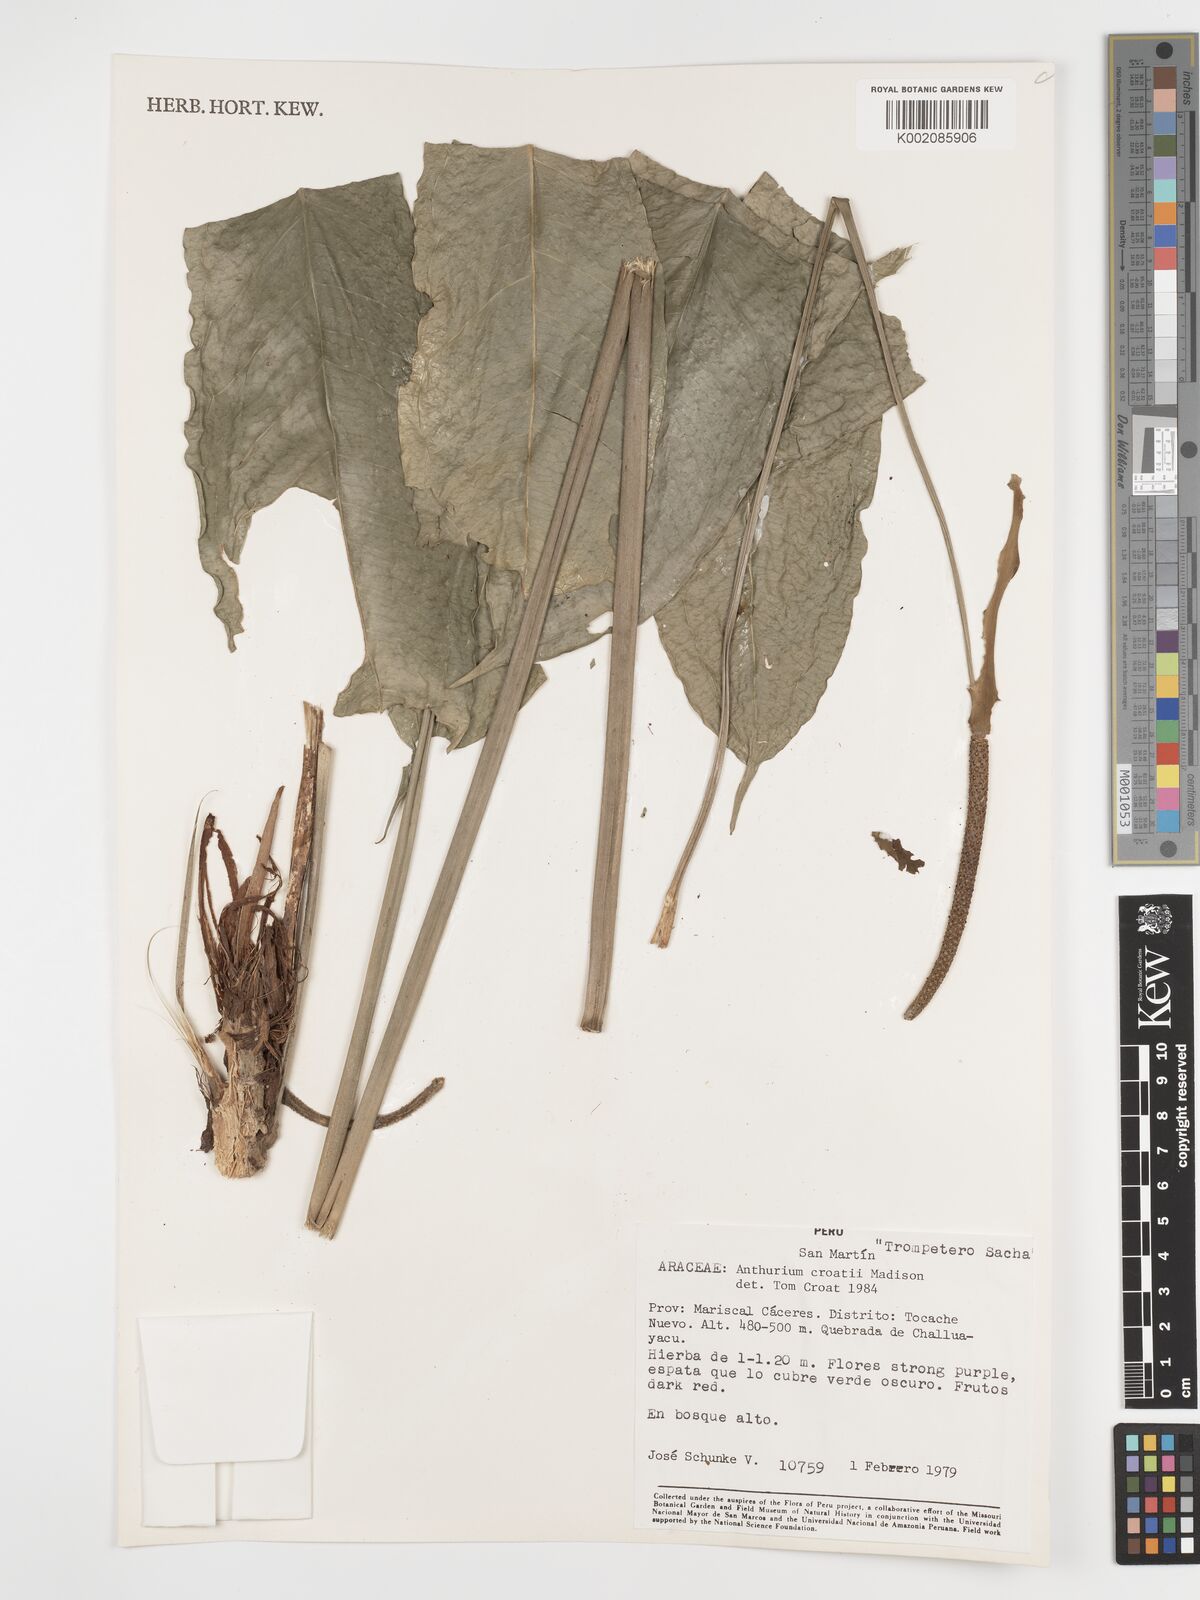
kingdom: Plantae
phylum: Tracheophyta
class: Liliopsida
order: Alismatales
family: Araceae
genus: Anthurium
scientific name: Anthurium croatii
